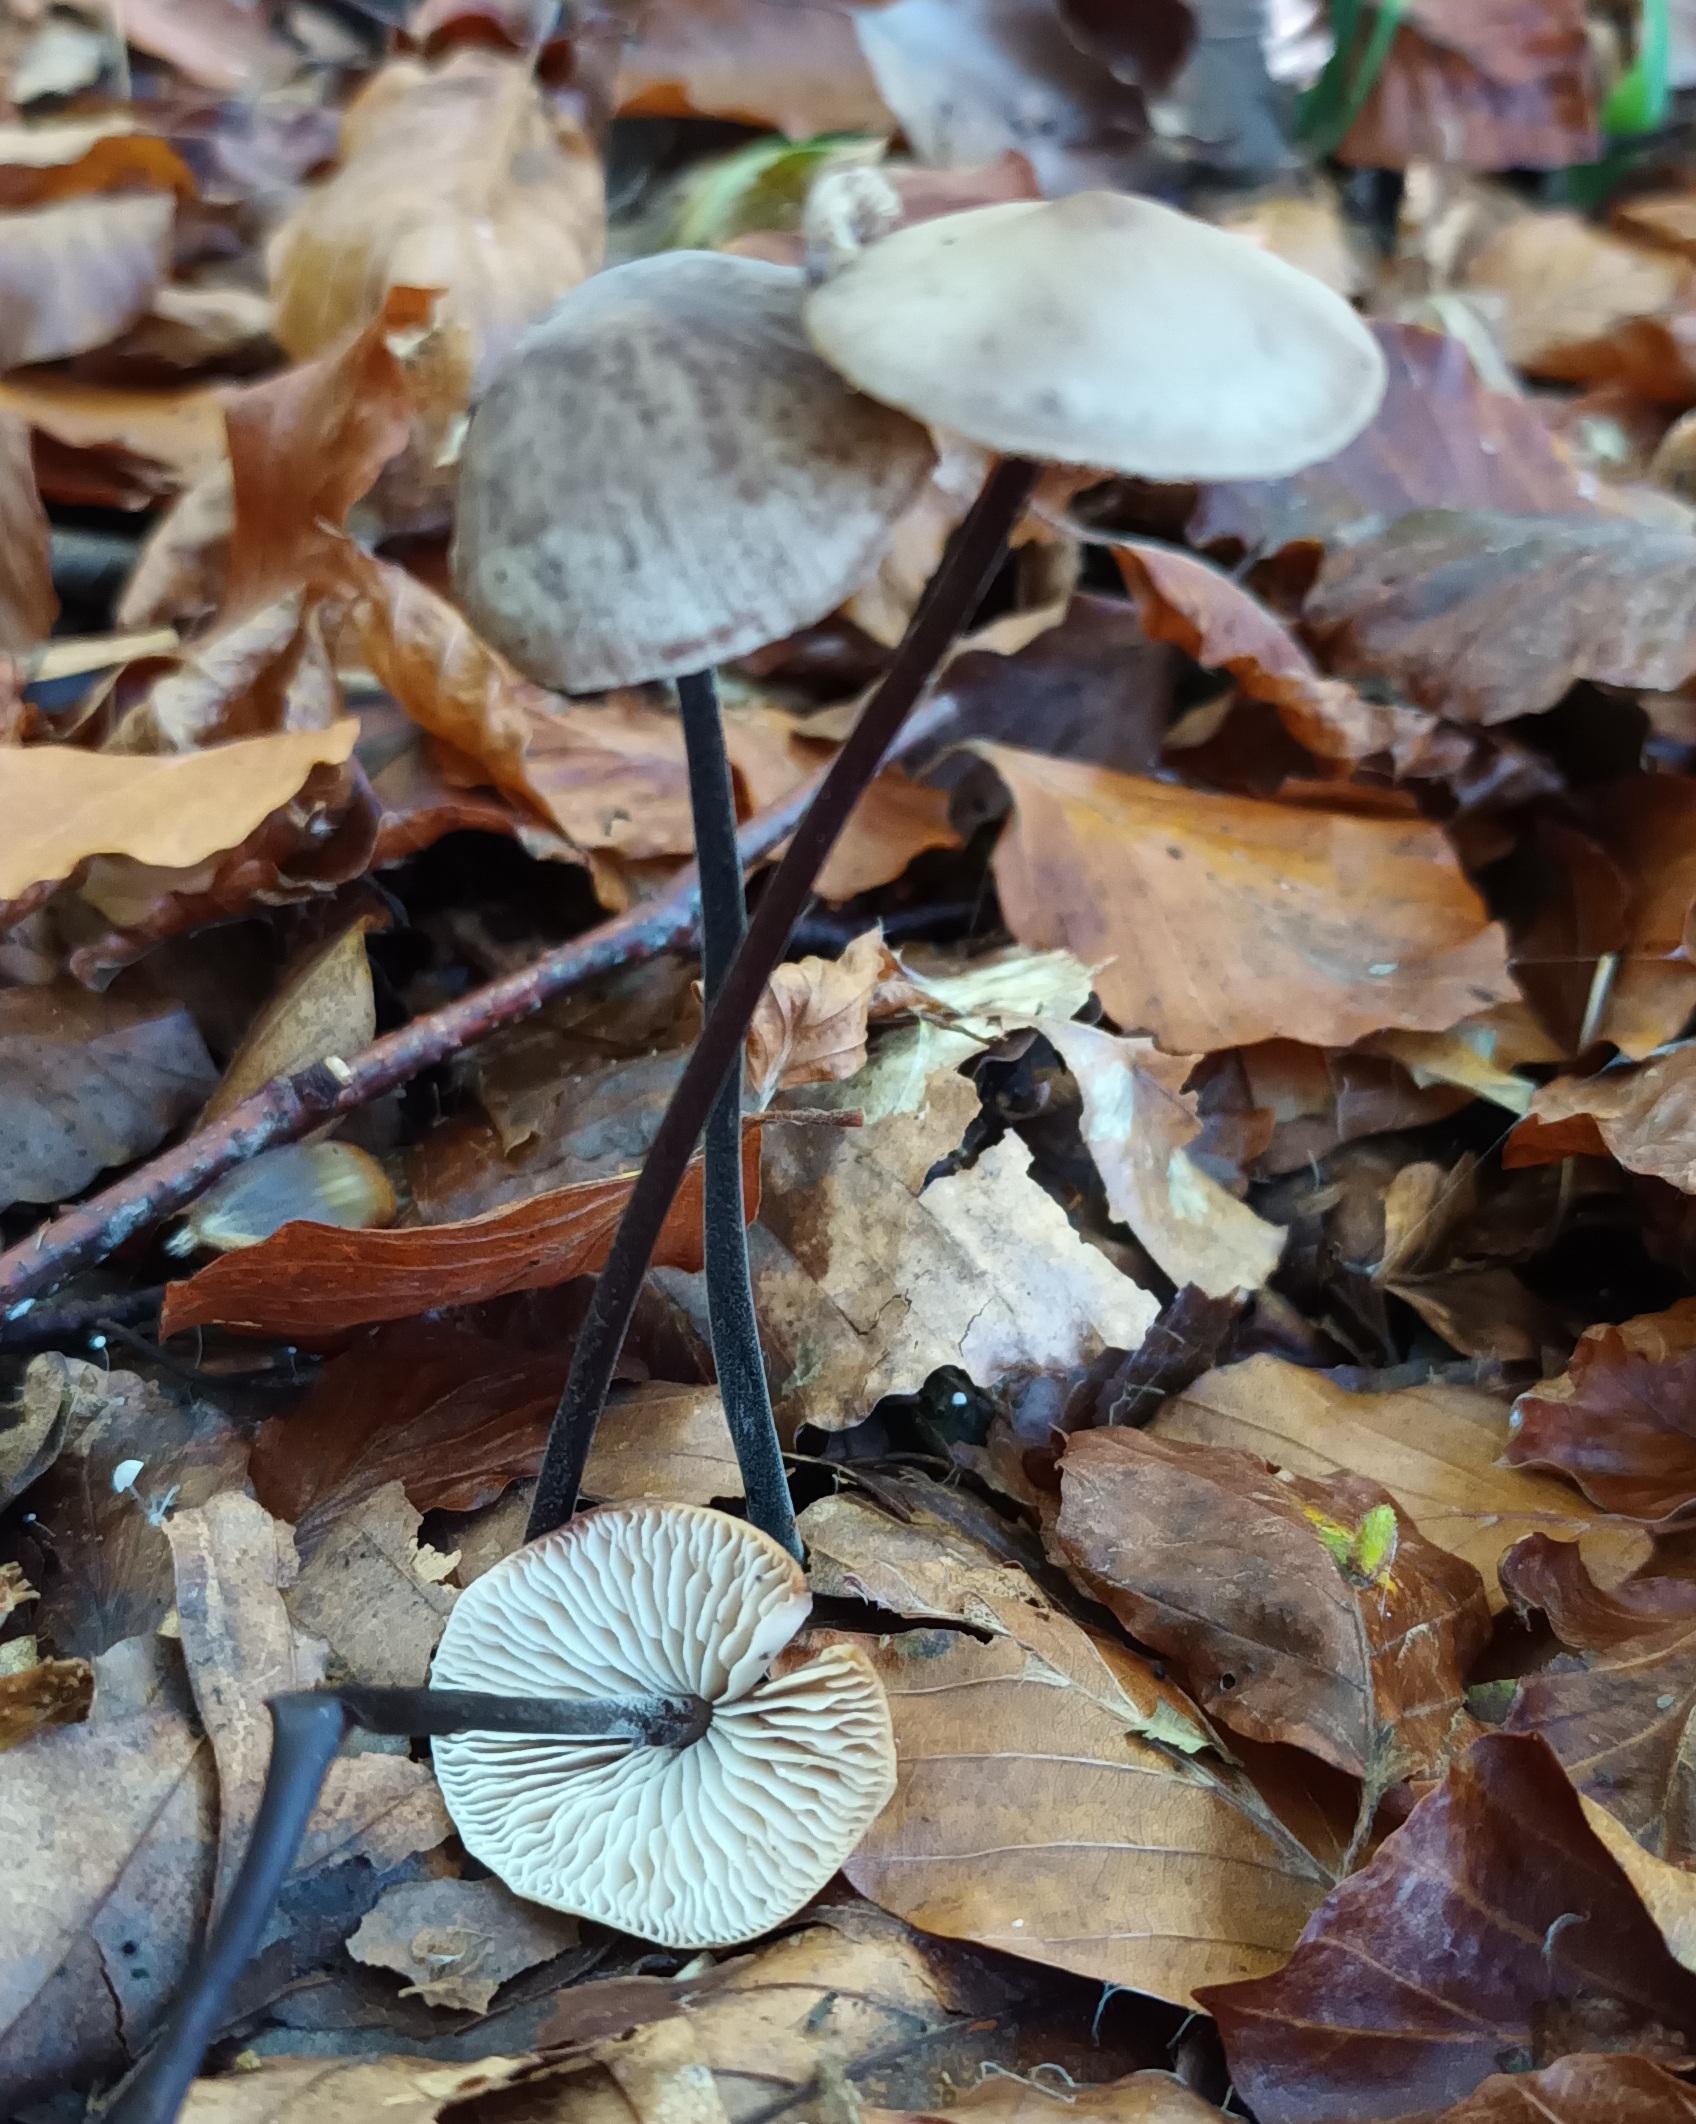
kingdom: Fungi
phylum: Basidiomycota
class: Agaricomycetes
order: Agaricales
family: Omphalotaceae
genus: Mycetinis
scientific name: Mycetinis alliaceus
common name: Stor løghat
